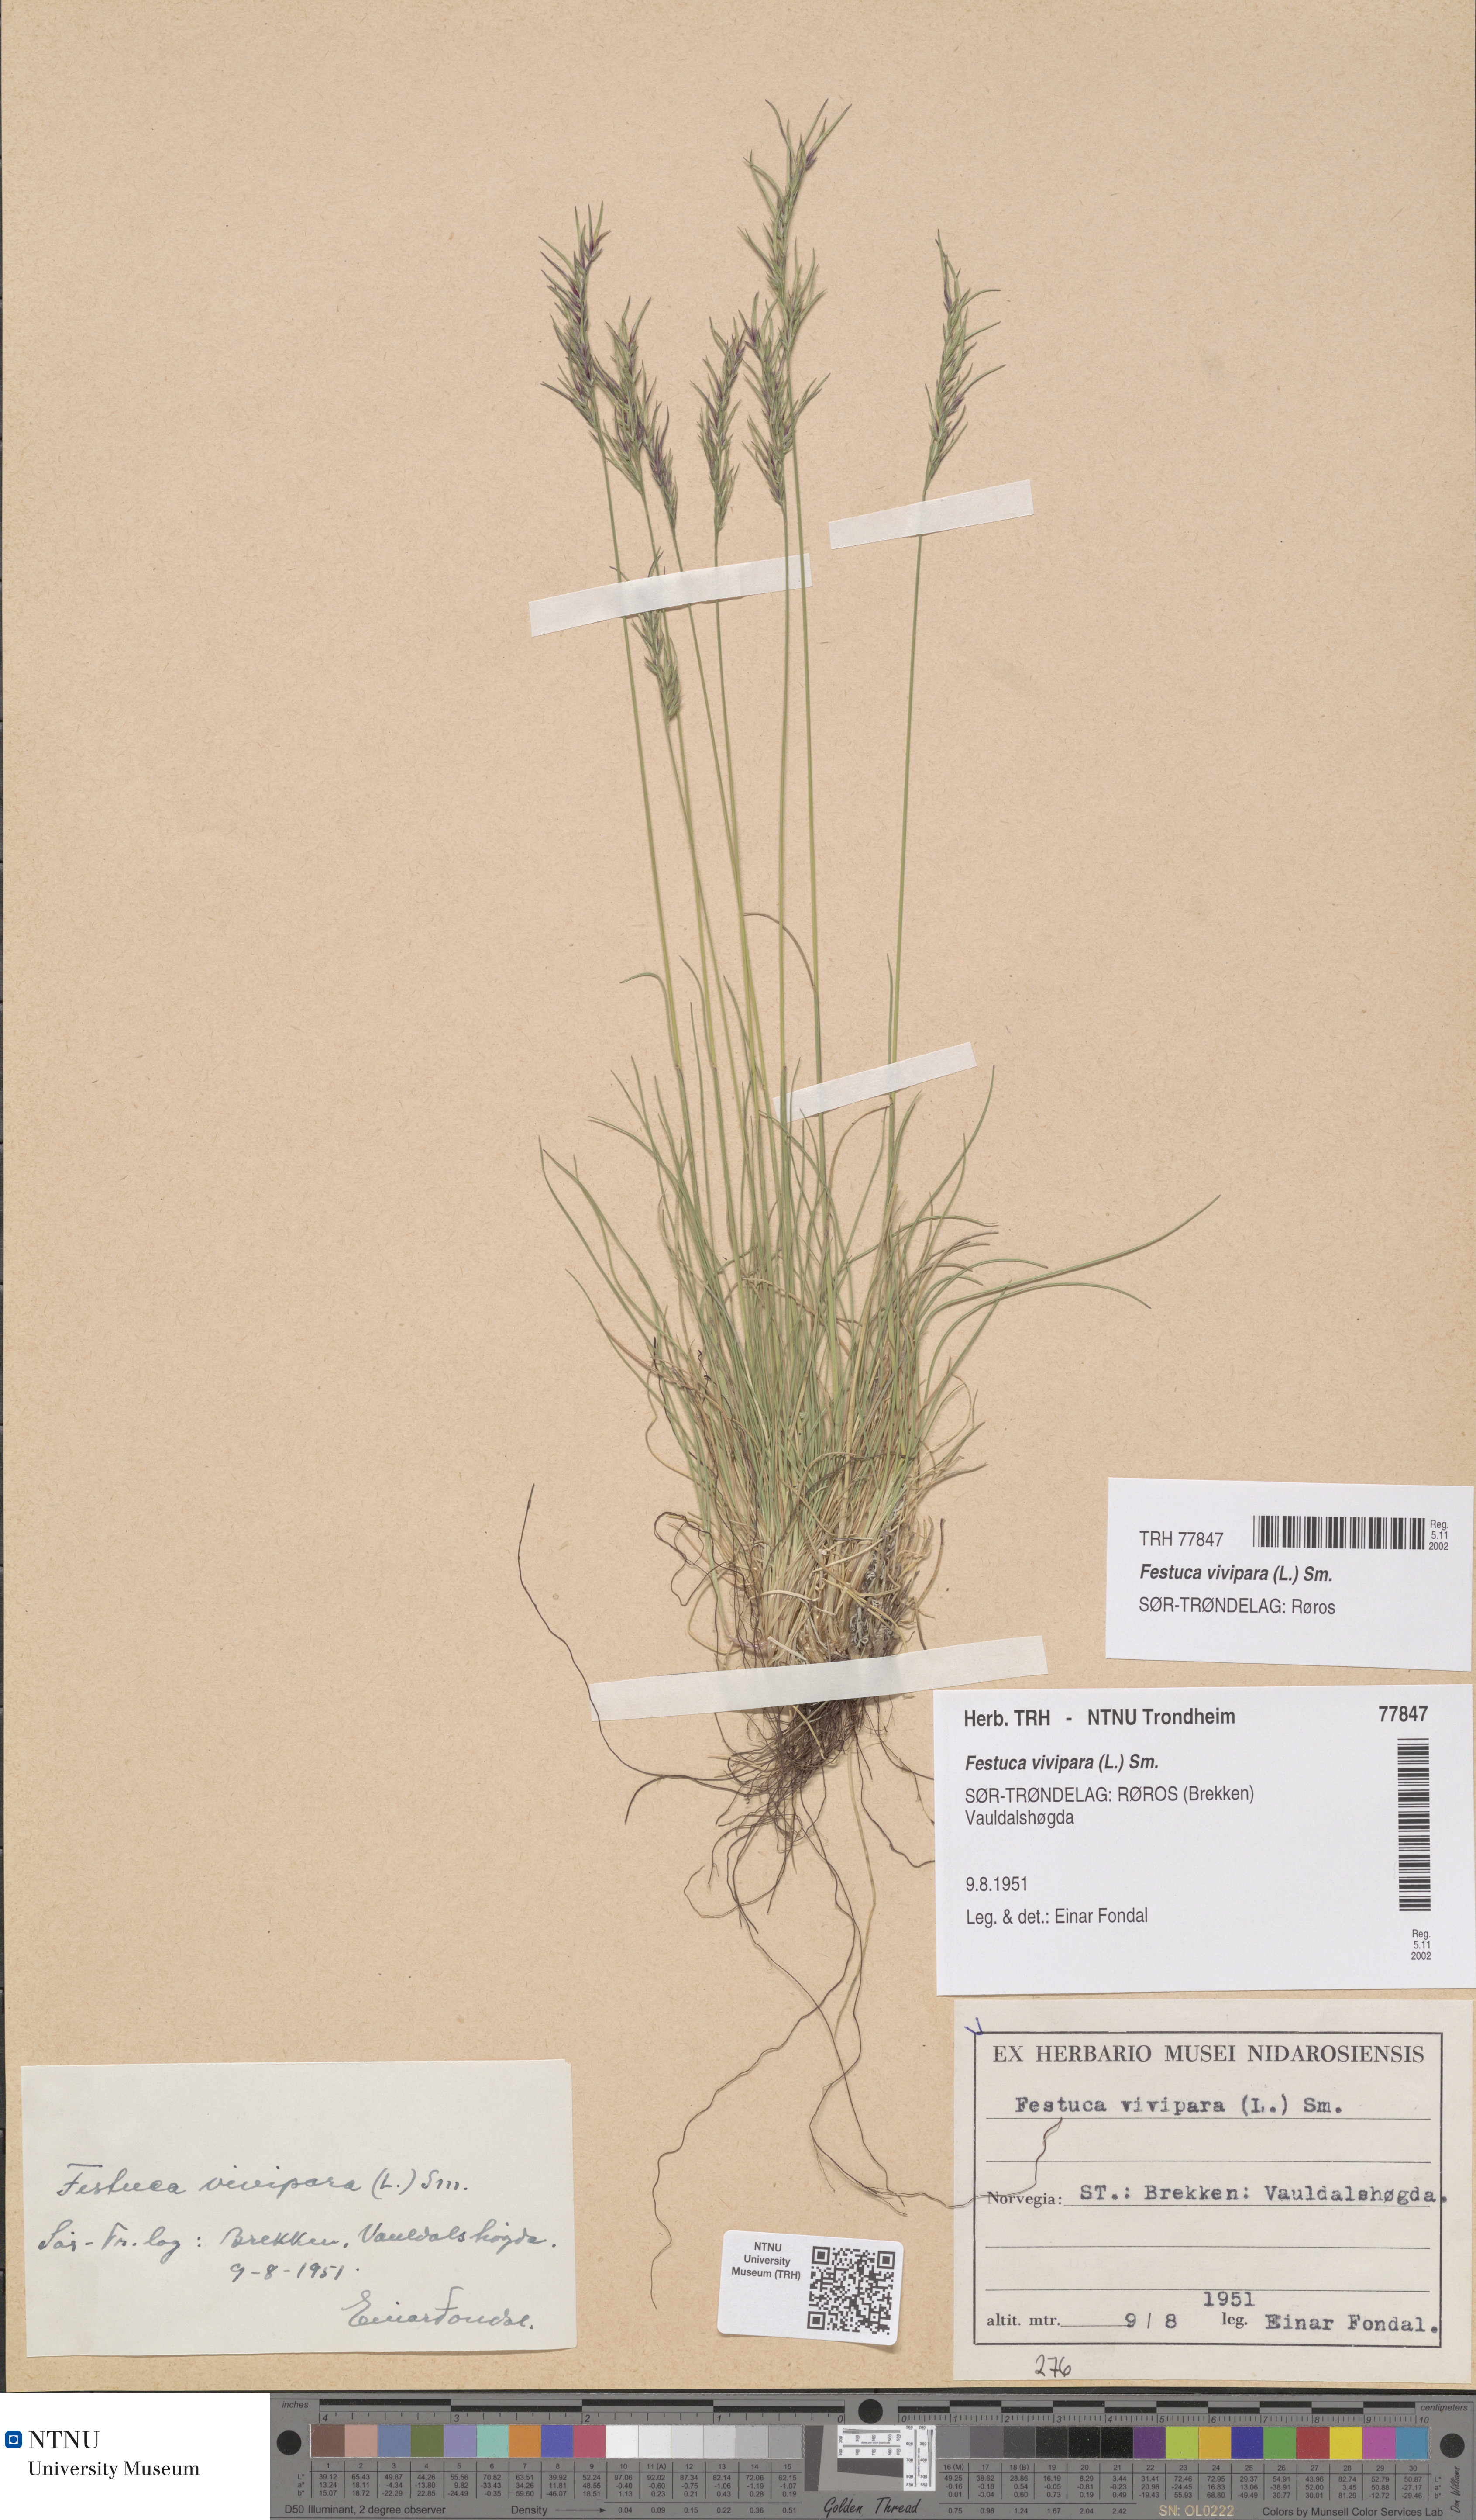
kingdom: Plantae
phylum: Tracheophyta
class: Liliopsida
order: Poales
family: Poaceae
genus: Festuca
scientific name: Festuca vivipara
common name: Viviparous sheep's-fescue
